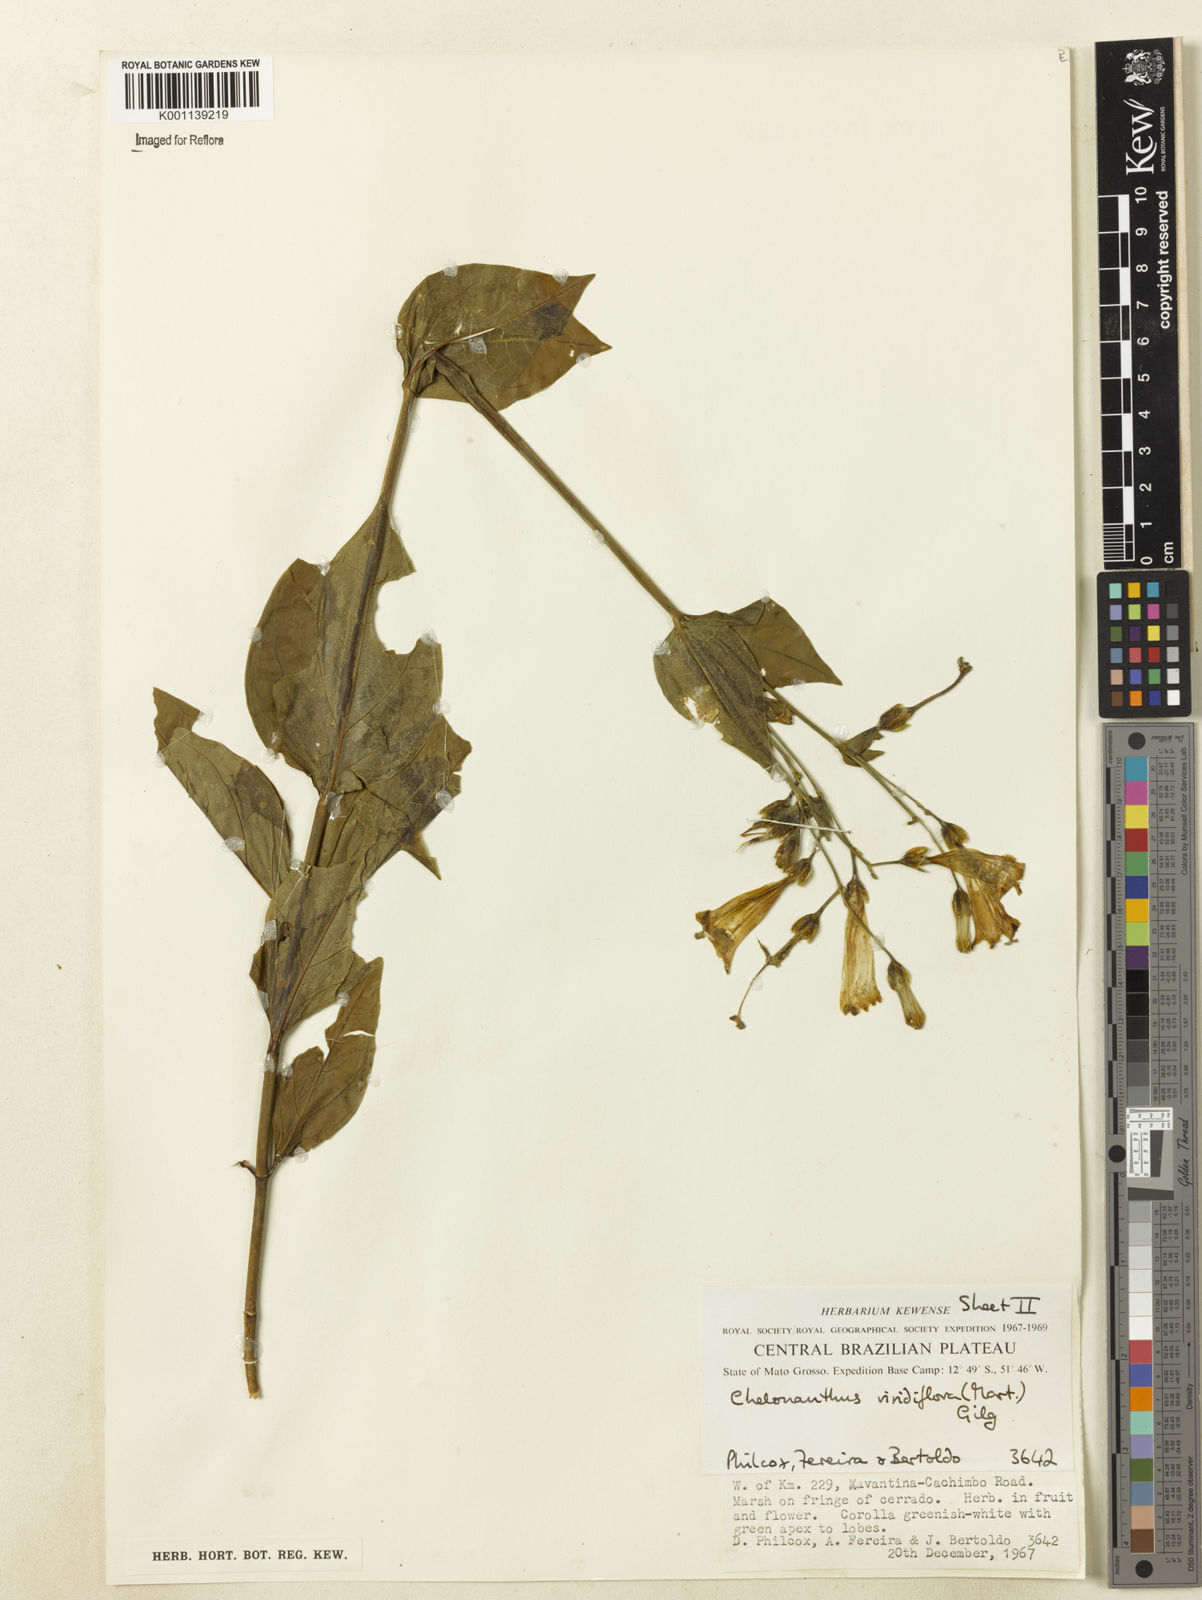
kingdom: Plantae
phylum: Tracheophyta
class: Magnoliopsida
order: Gentianales
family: Gentianaceae
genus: Chelonanthus
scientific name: Chelonanthus viridiflorus
